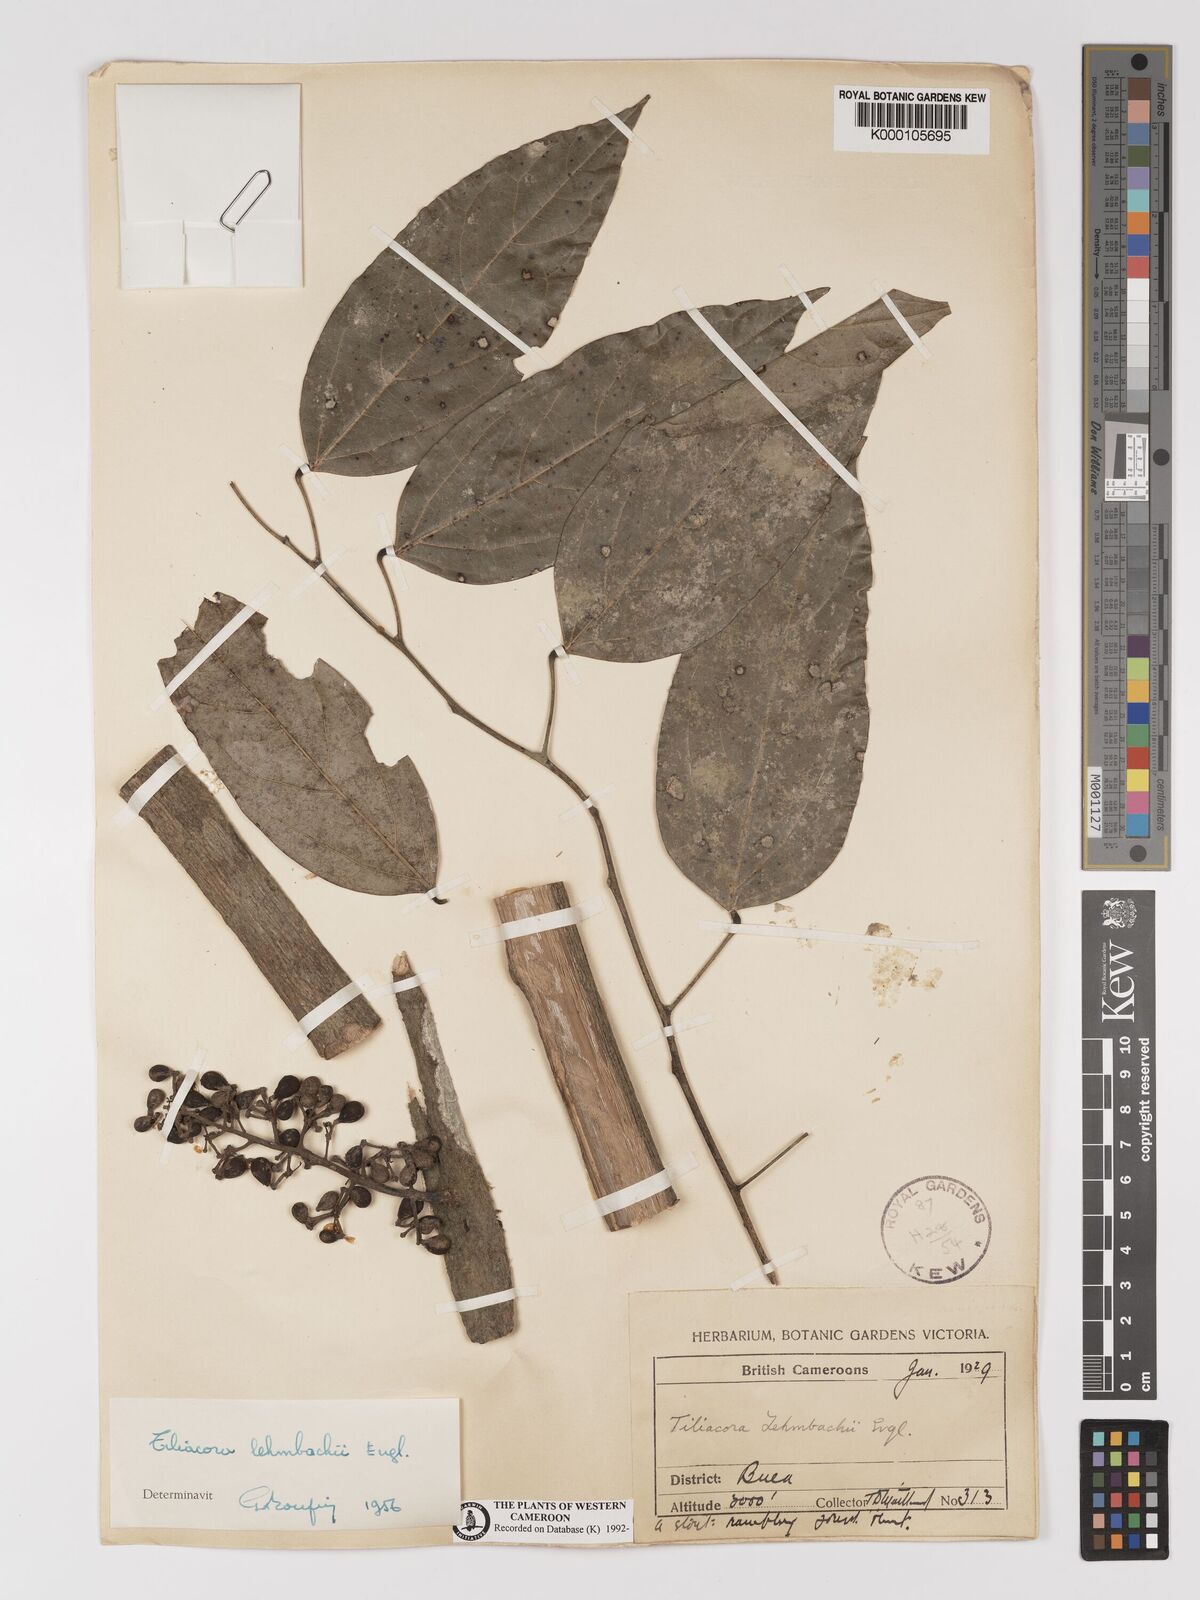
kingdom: Plantae
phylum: Tracheophyta
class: Magnoliopsida
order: Ranunculales
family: Menispermaceae
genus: Tiliacora
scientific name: Tiliacora lehmbachii
